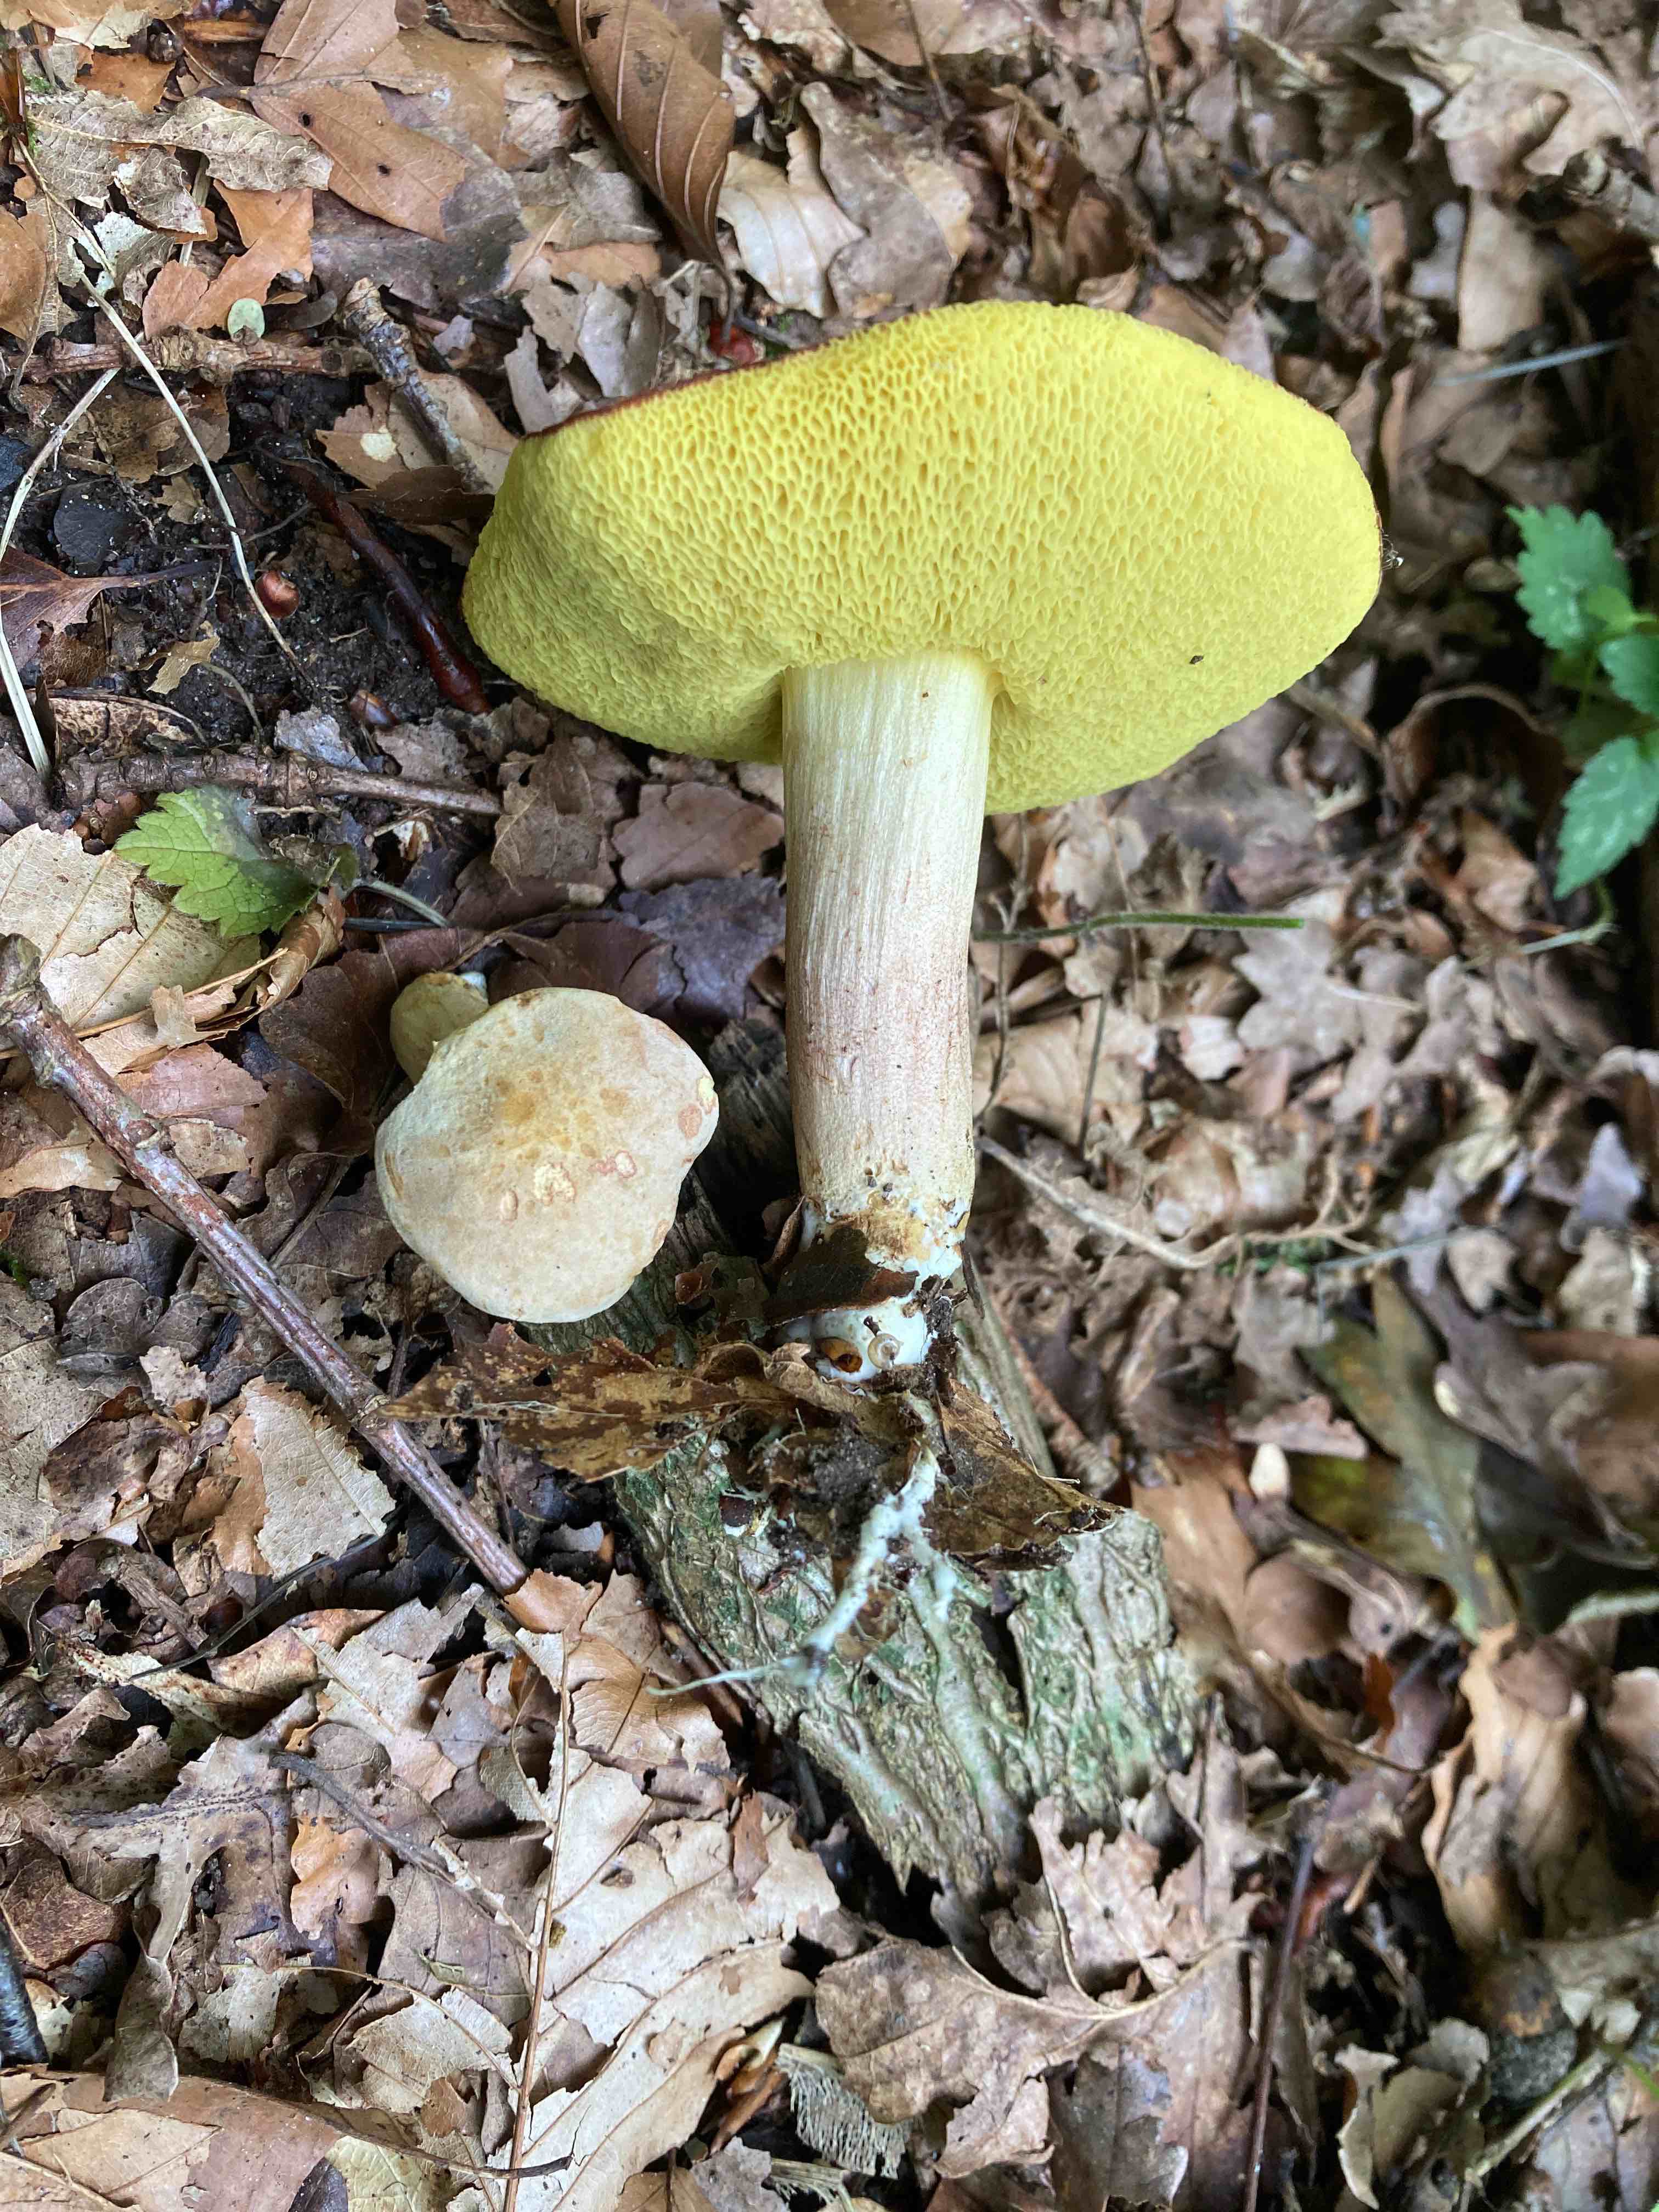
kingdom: Fungi
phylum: Basidiomycota
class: Agaricomycetes
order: Boletales
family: Boletaceae
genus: Xerocomus
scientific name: Xerocomus subtomentosus
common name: filtet rørhat
